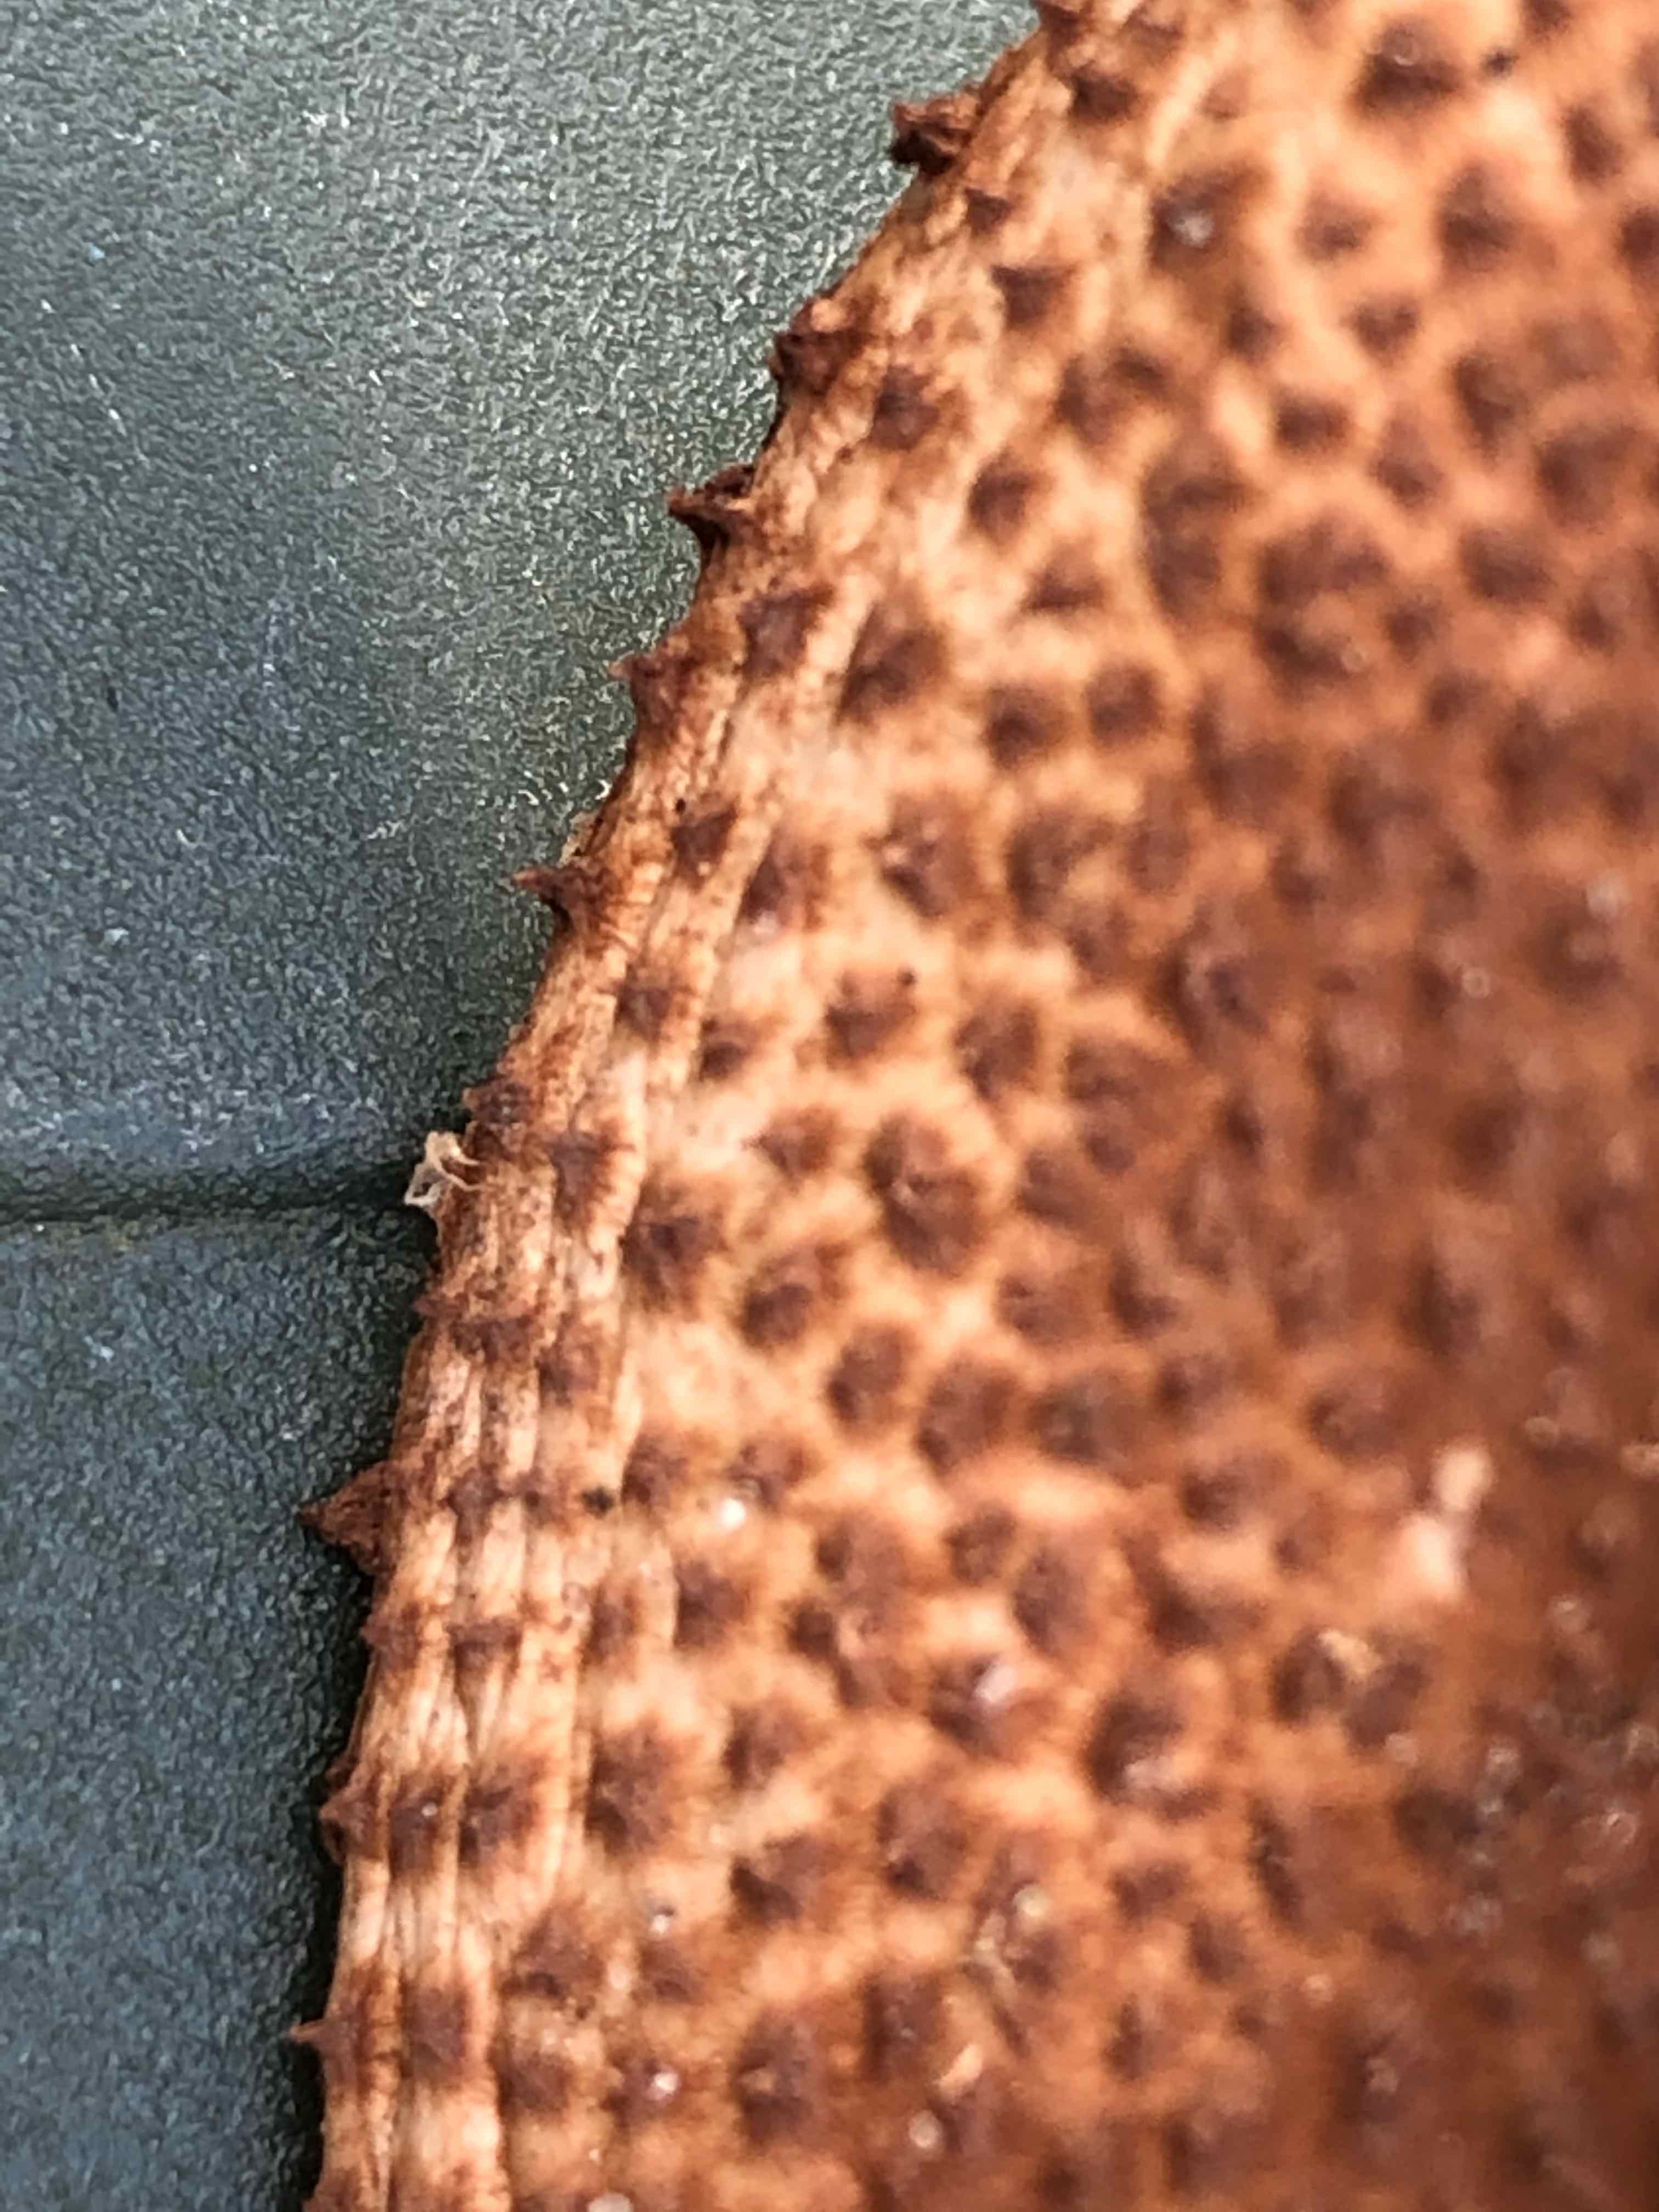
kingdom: Fungi
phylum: Basidiomycota
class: Agaricomycetes
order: Agaricales
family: Agaricaceae
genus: Echinoderma
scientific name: Echinoderma asperum
